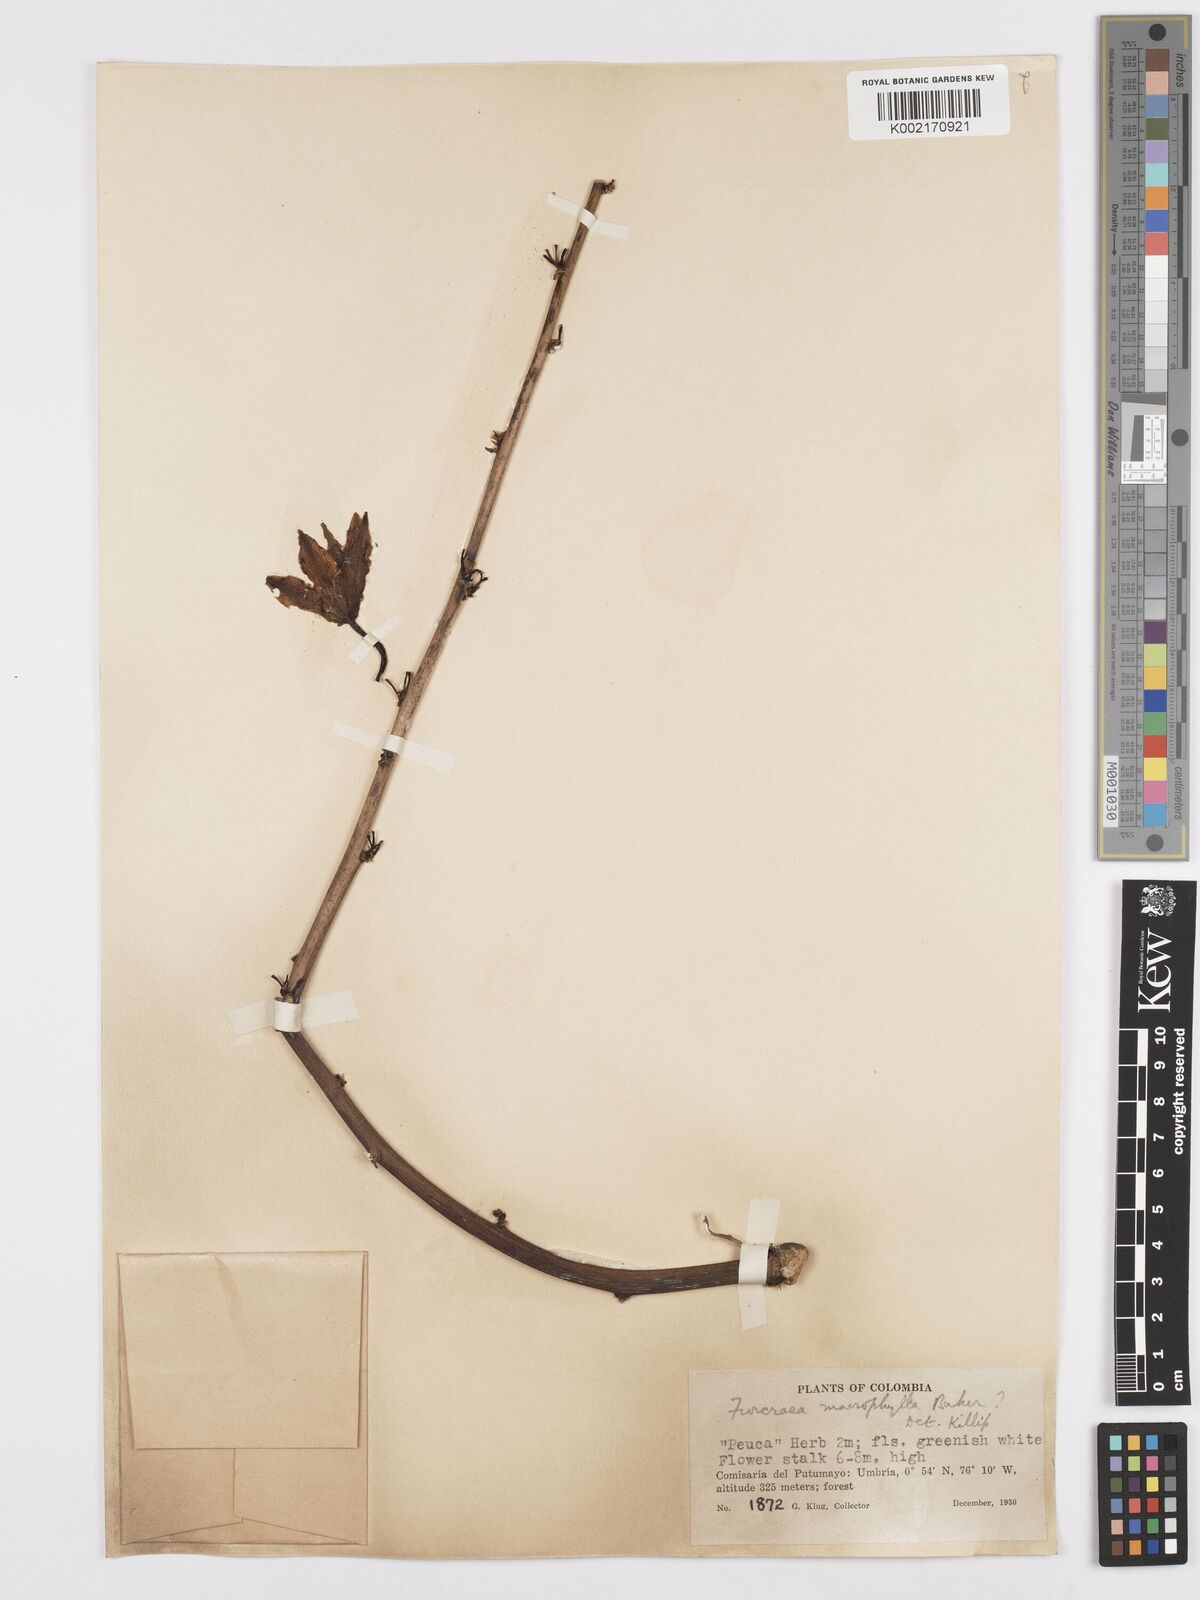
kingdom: Plantae
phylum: Tracheophyta
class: Liliopsida
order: Asparagales
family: Asparagaceae
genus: Furcraea
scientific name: Furcraea hexapetala
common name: Cuban-hemp
